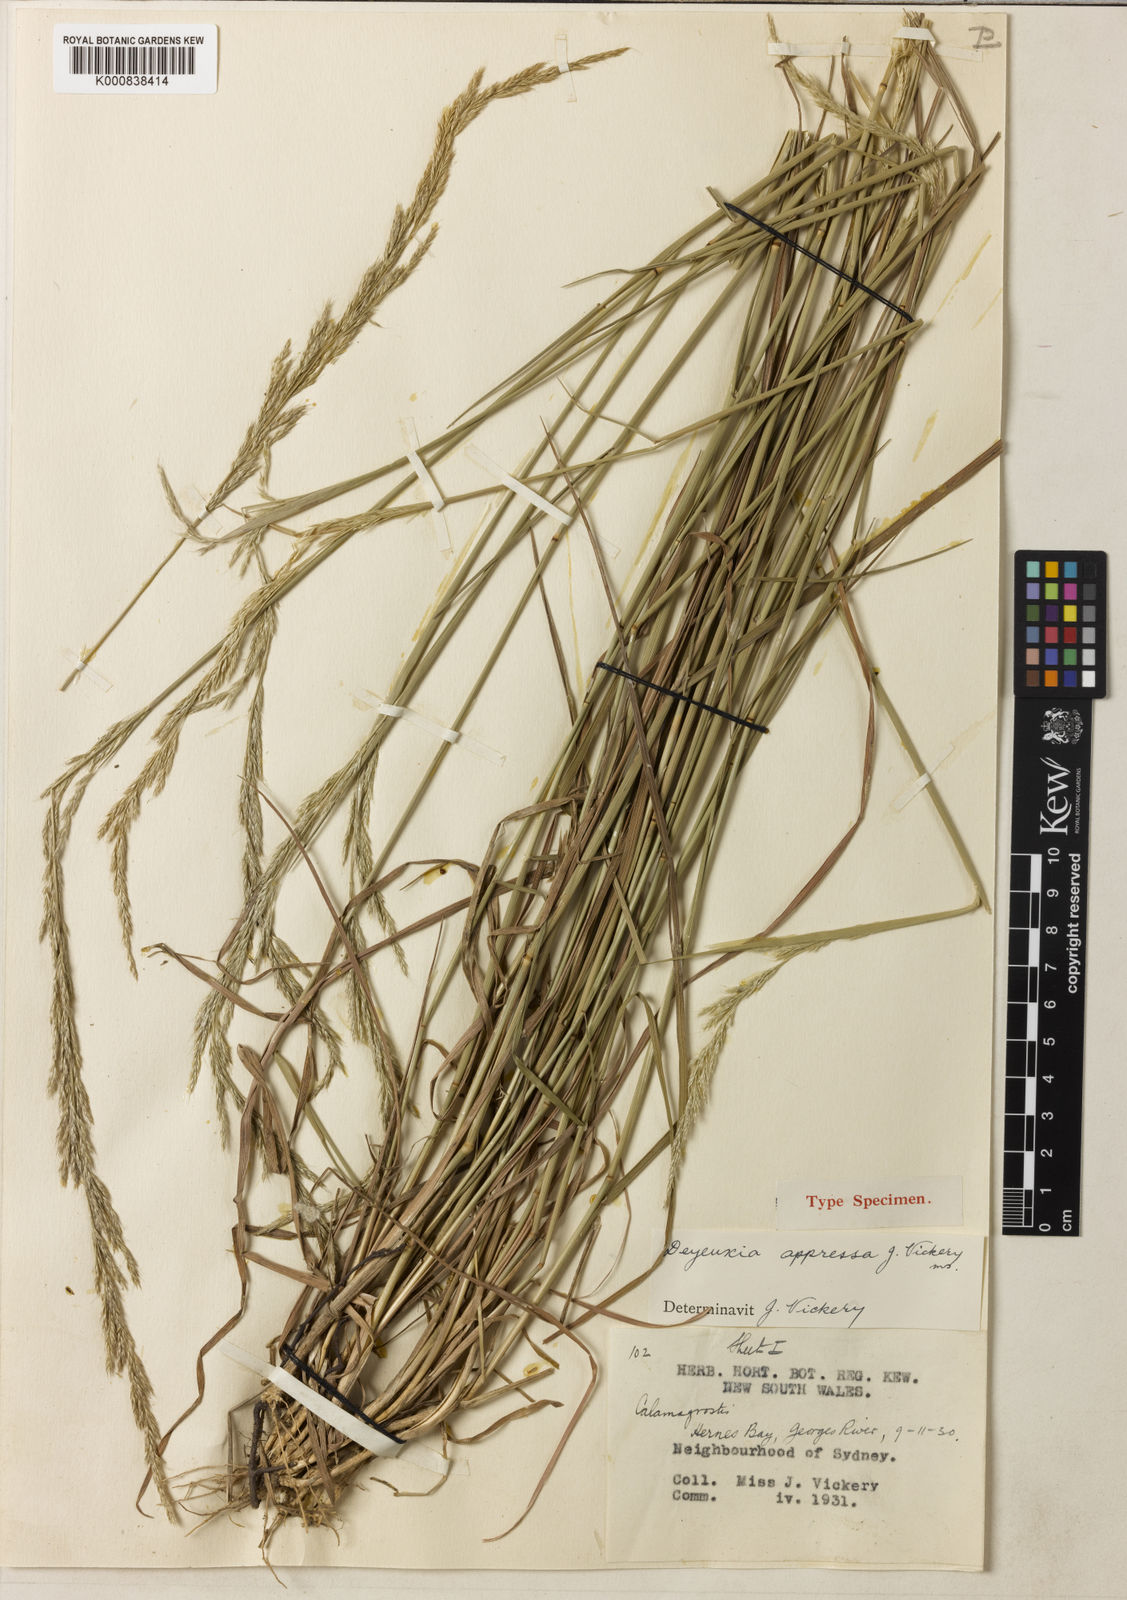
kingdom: Plantae
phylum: Tracheophyta
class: Liliopsida
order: Poales
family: Poaceae
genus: Calamagrostis
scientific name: Calamagrostis appressa
